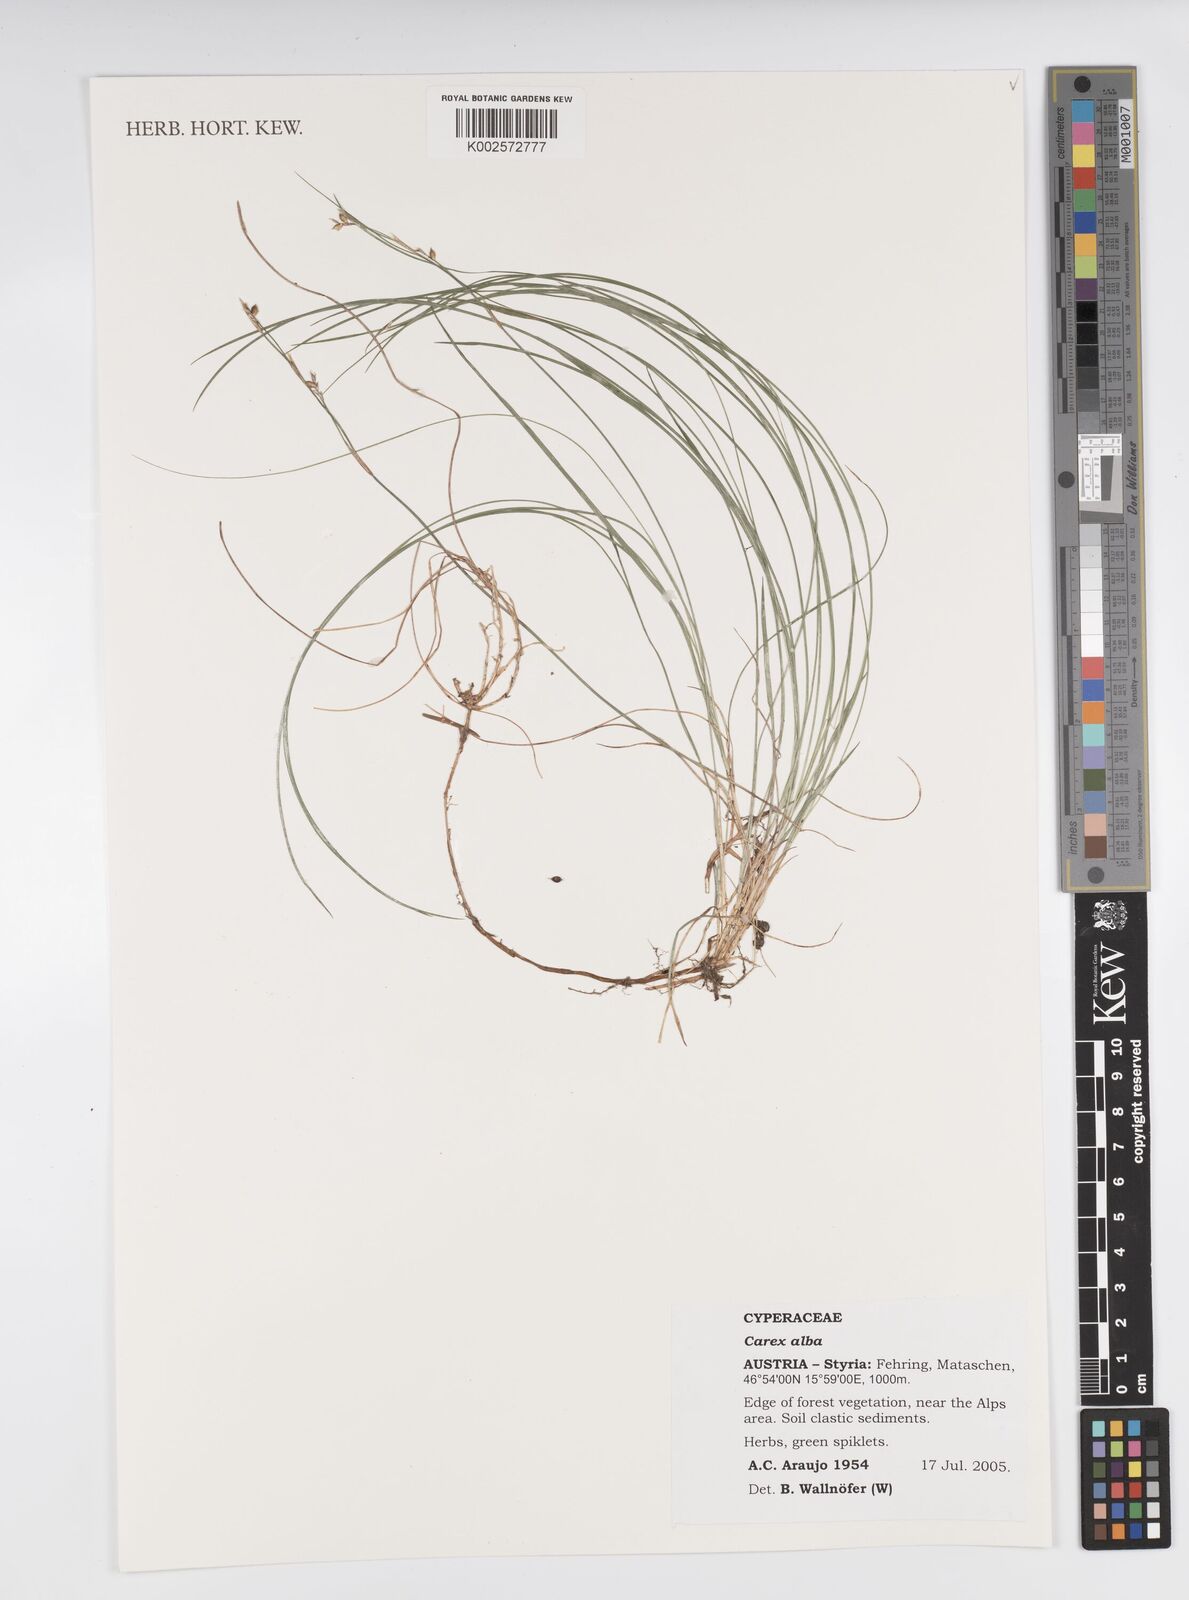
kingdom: Plantae
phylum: Tracheophyta
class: Liliopsida
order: Poales
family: Cyperaceae
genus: Carex
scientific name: Carex alba
